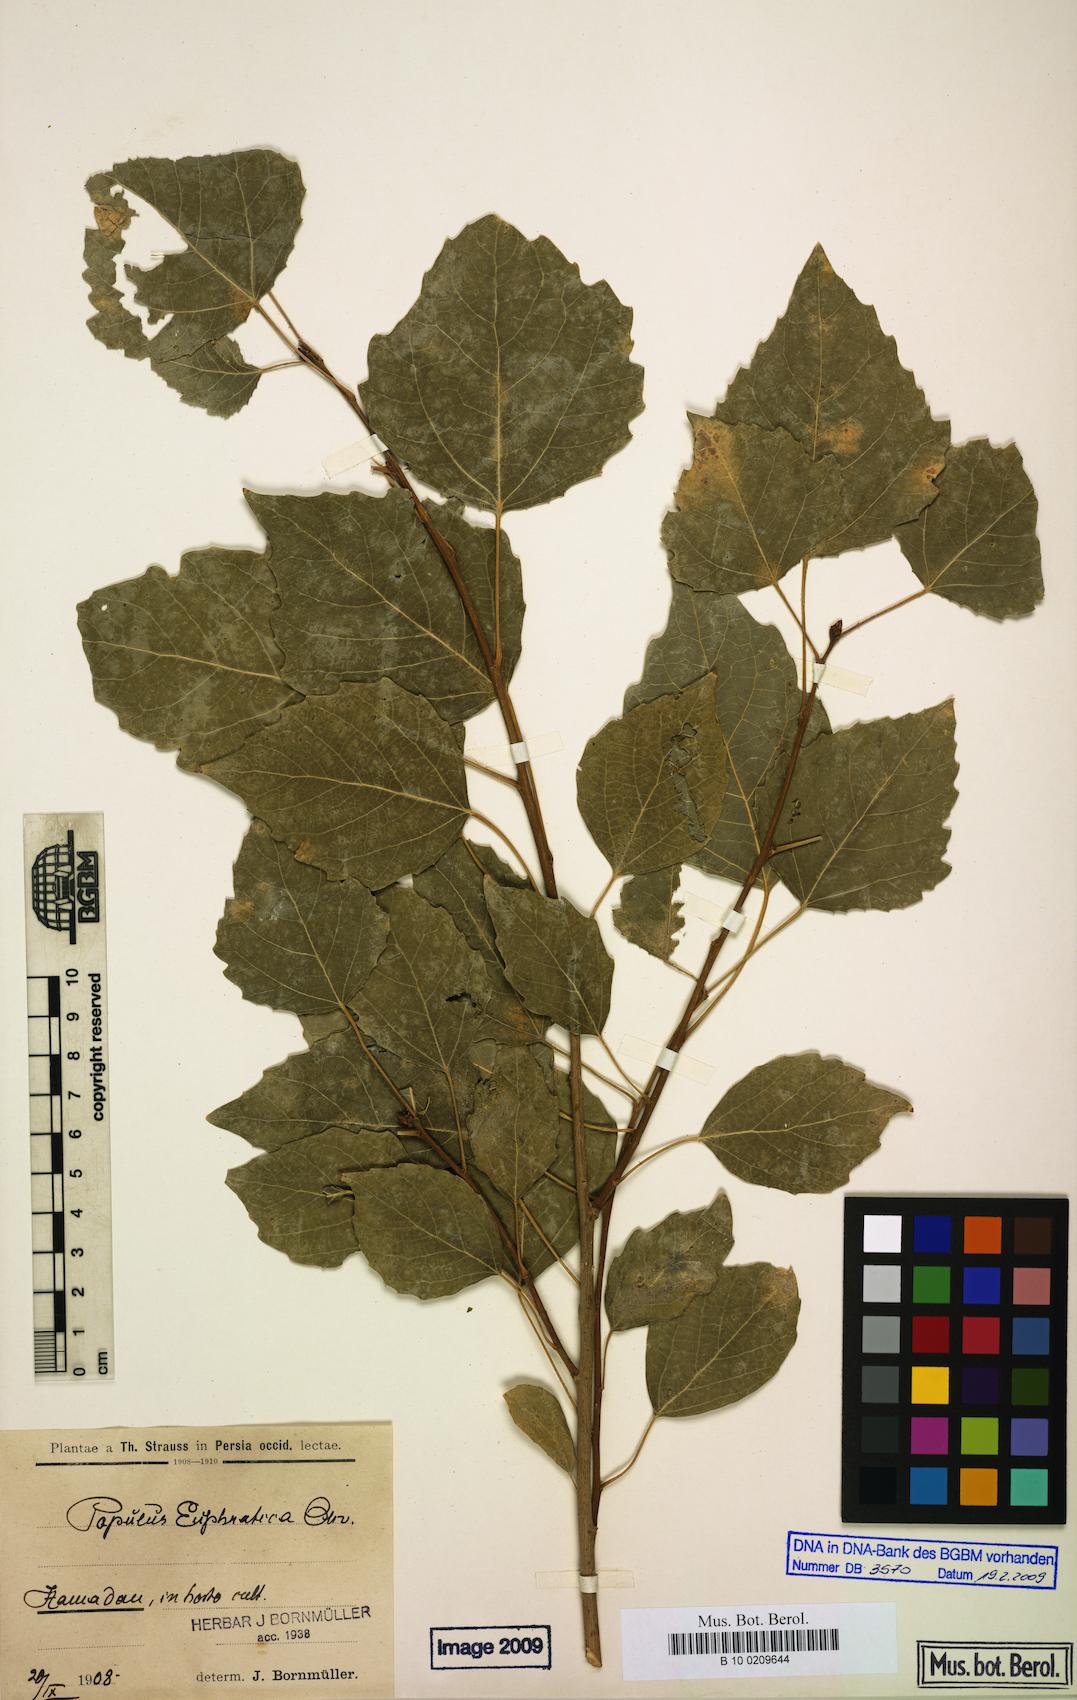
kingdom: Plantae
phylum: Tracheophyta
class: Magnoliopsida
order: Malpighiales
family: Salicaceae
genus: Populus
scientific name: Populus euphratica
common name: Euphrates poplar
